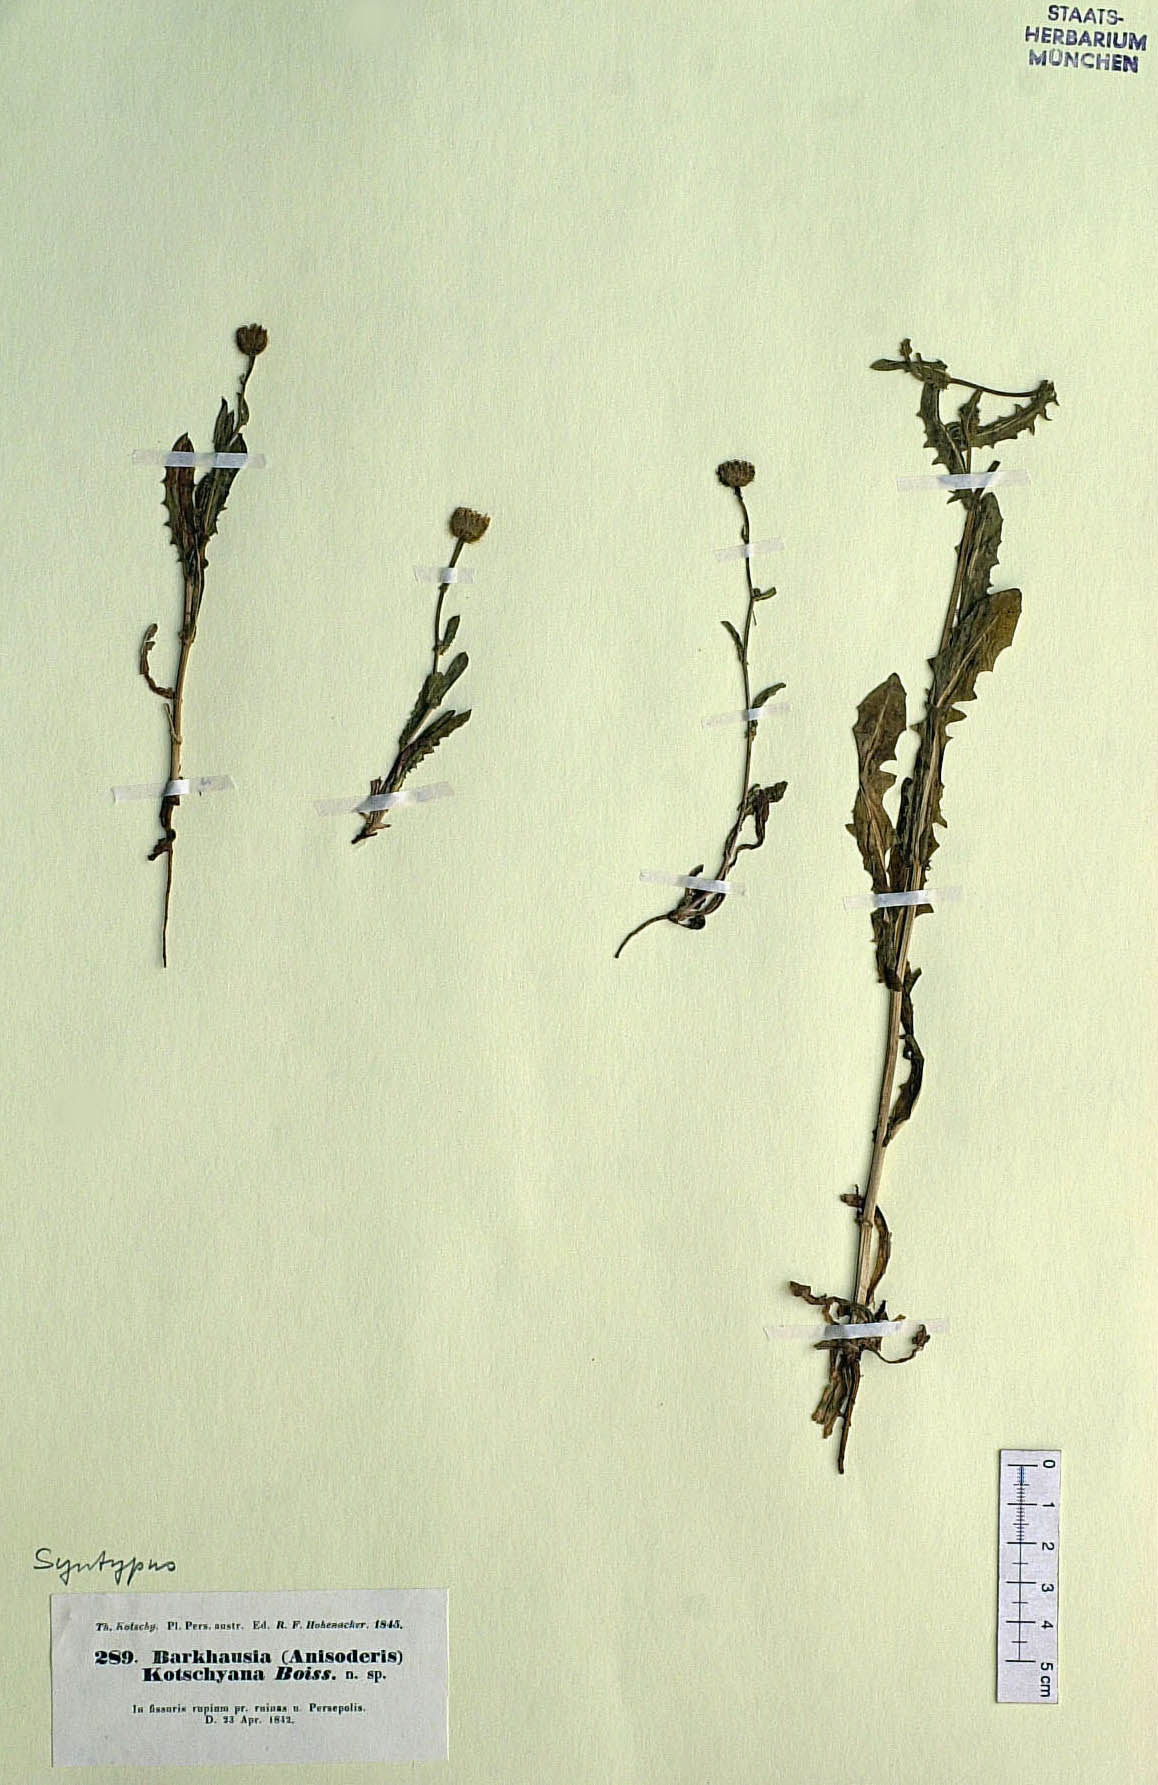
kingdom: Plantae
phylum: Tracheophyta
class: Magnoliopsida
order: Asterales
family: Asteraceae
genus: Crepis
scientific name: Crepis kotschyana
